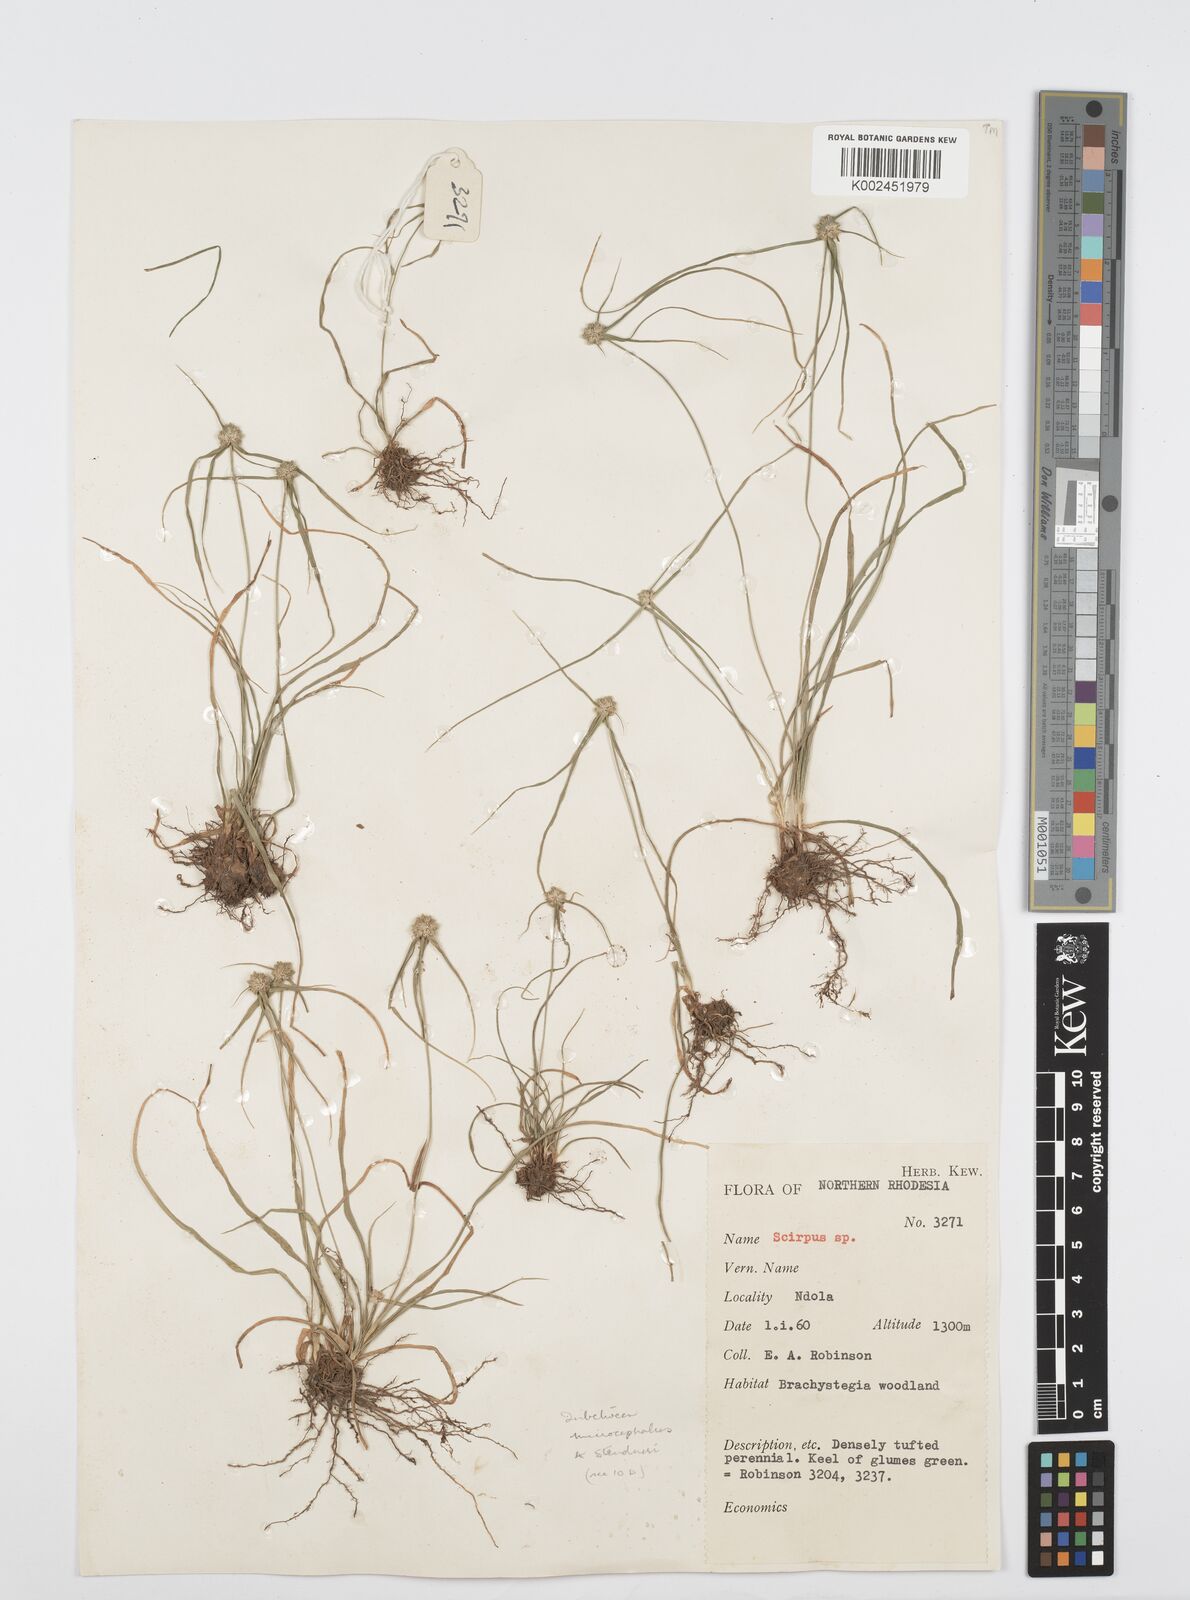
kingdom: Plantae
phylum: Tracheophyta
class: Liliopsida
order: Poales
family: Cyperaceae
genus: Cyperus
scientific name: Cyperus microcephalus
